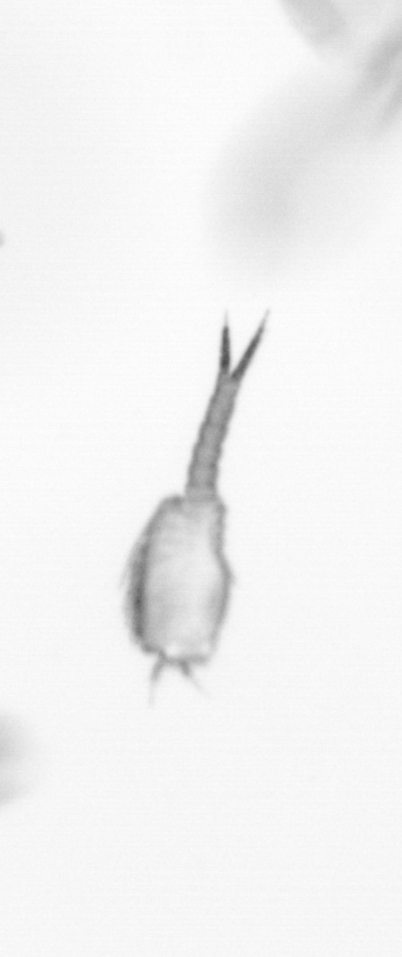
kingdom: Animalia
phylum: Arthropoda
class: Copepoda
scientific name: Copepoda
